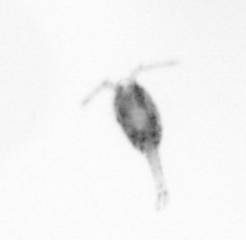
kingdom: Animalia
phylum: Arthropoda
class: Copepoda
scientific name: Copepoda
